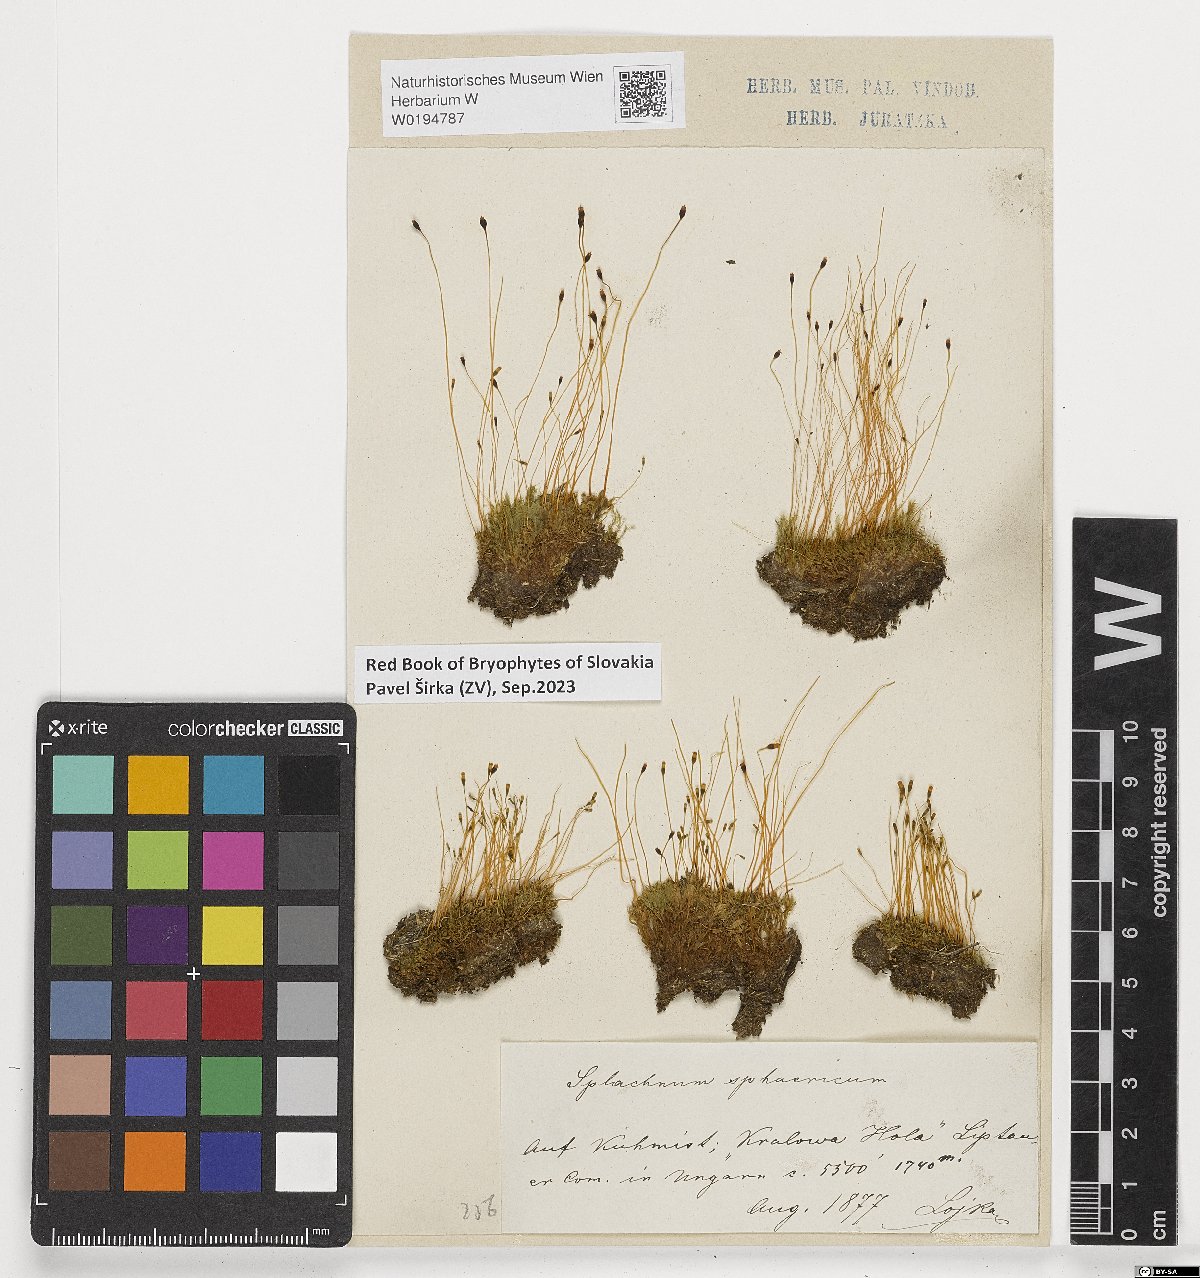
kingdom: Plantae
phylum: Bryophyta
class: Bryopsida
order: Splachnales
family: Splachnaceae
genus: Splachnum
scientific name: Splachnum sphaericum
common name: Round-fruited dung moss
